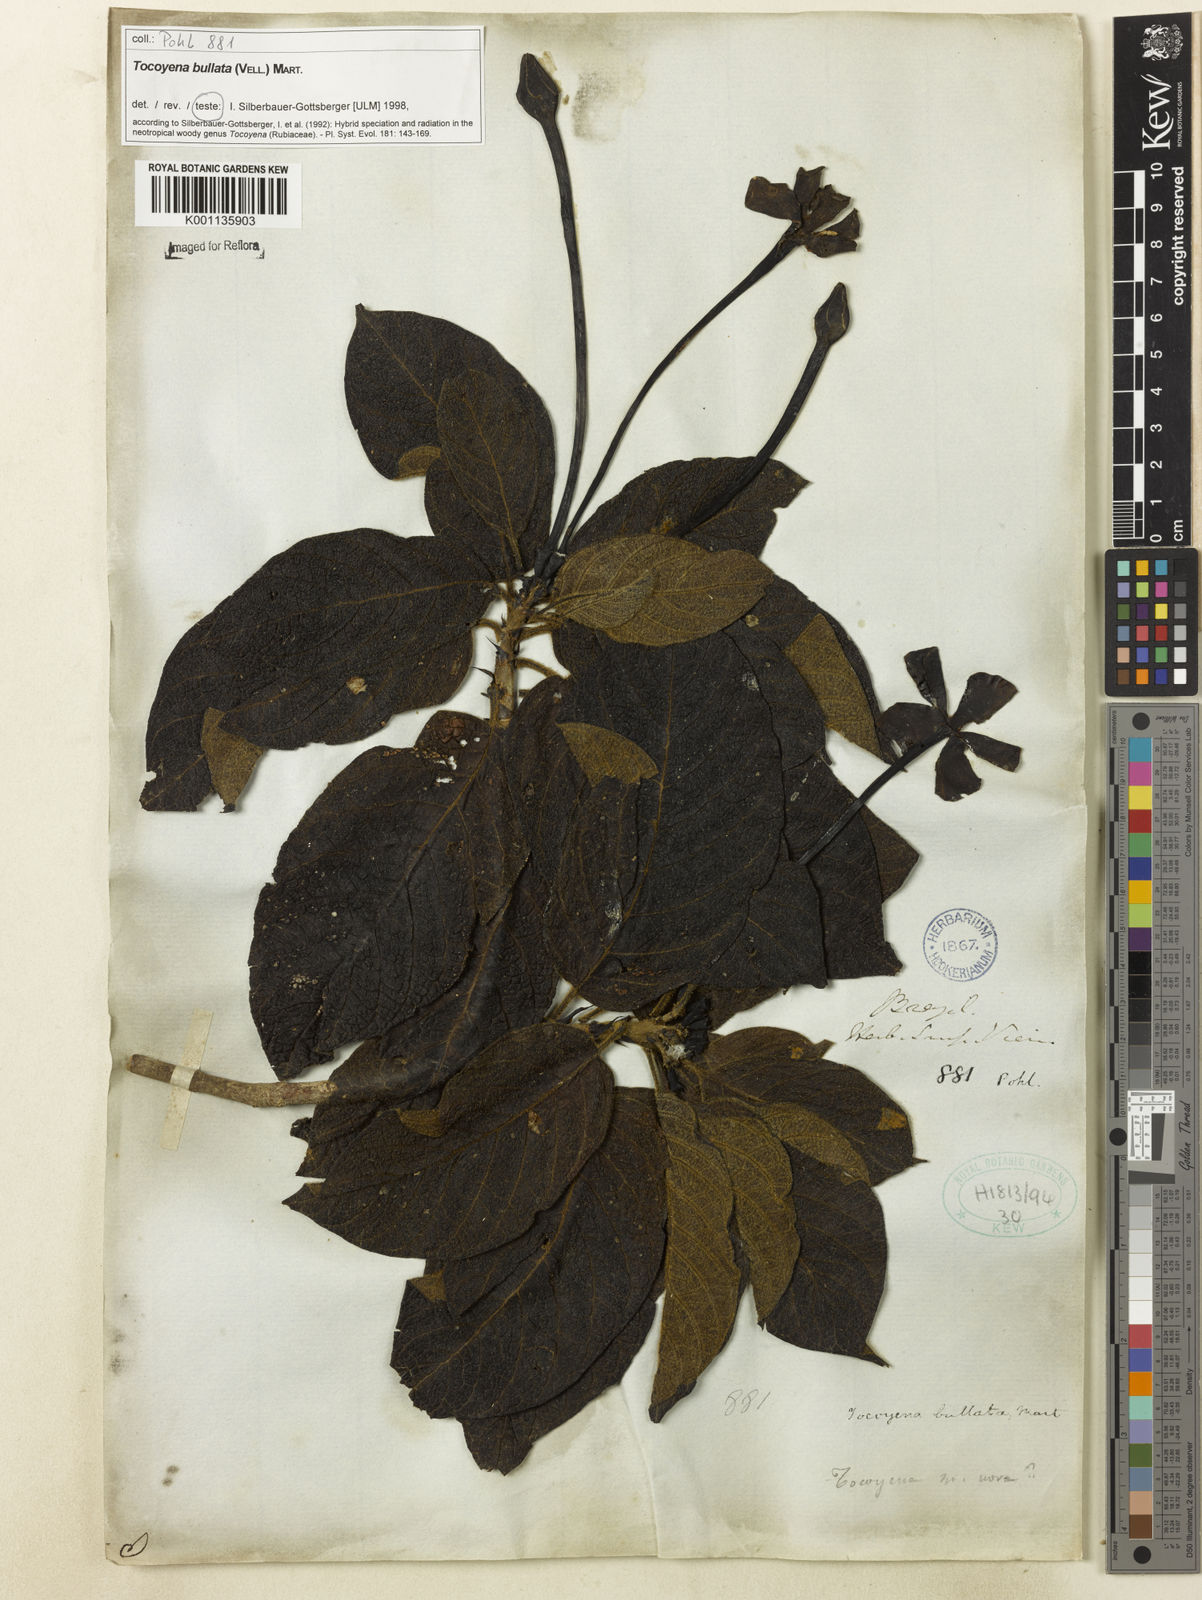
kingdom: Plantae
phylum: Tracheophyta
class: Magnoliopsida
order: Gentianales
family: Rubiaceae
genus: Tocoyena
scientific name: Tocoyena bullata
